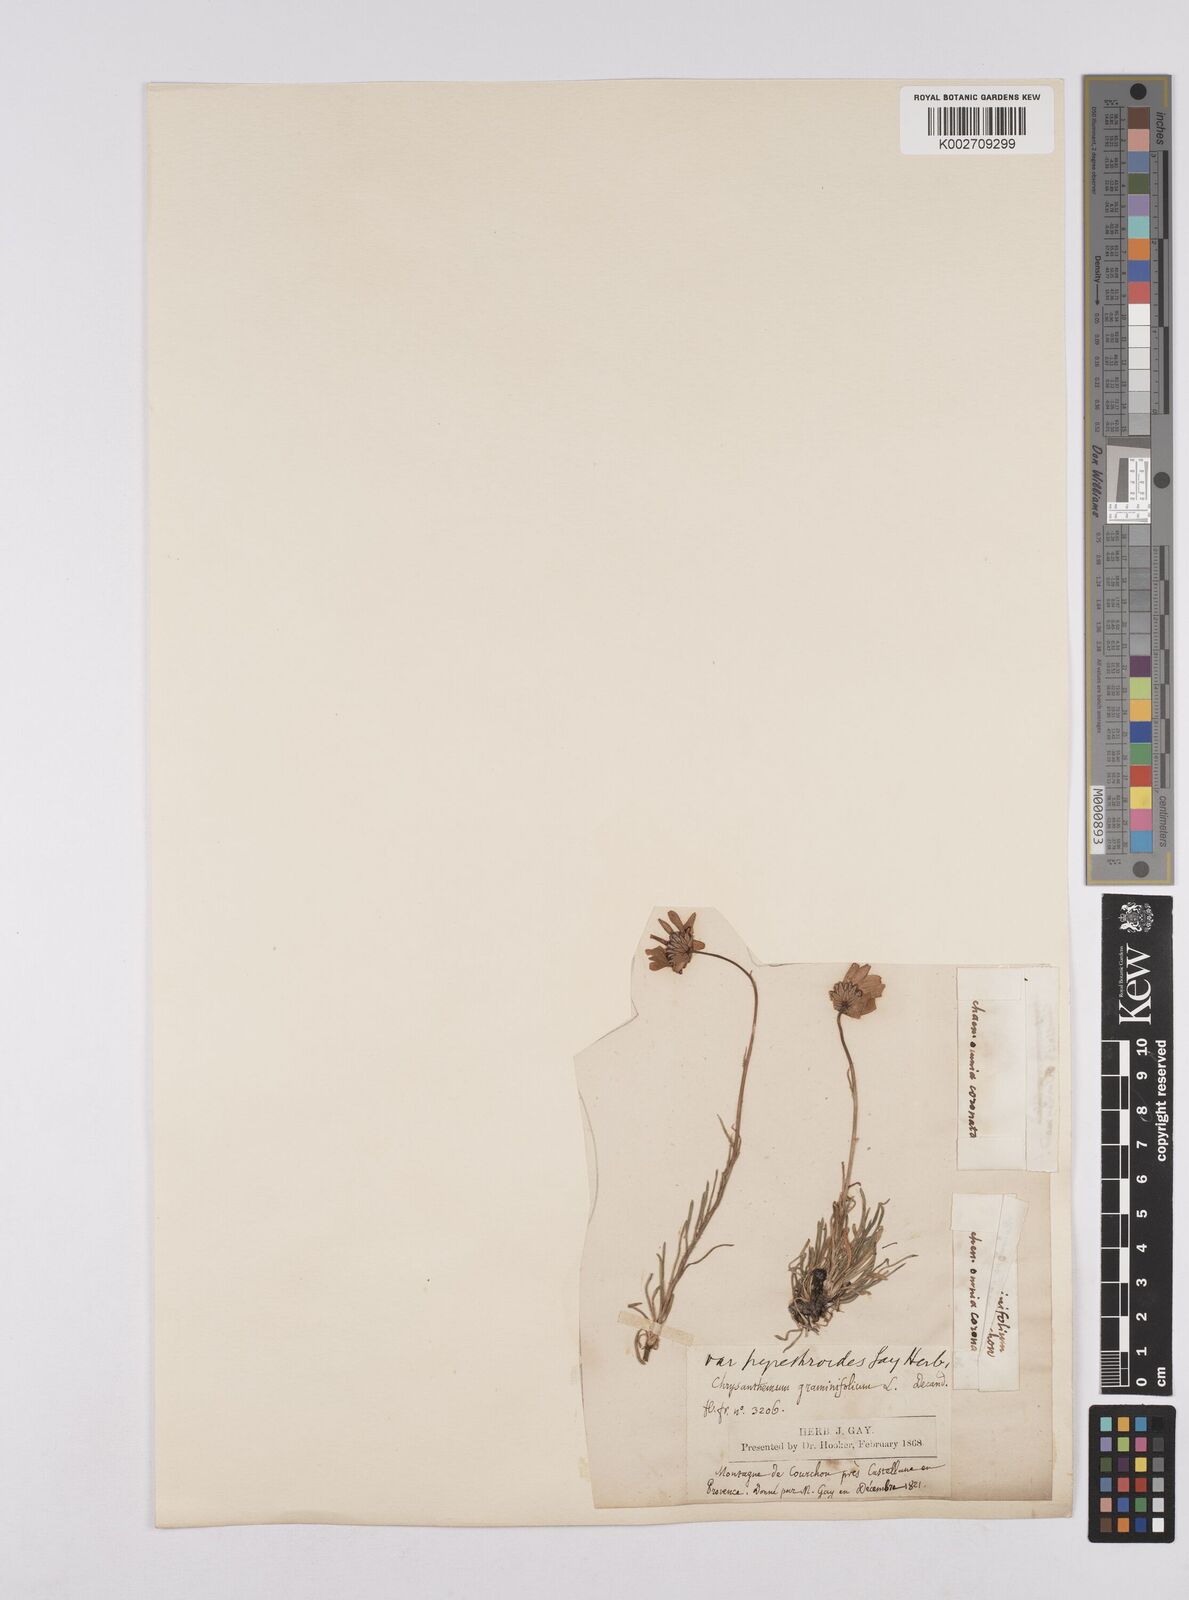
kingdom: Plantae
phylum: Tracheophyta
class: Magnoliopsida
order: Asterales
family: Asteraceae
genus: Leucanthemum
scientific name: Leucanthemum chloroticum
